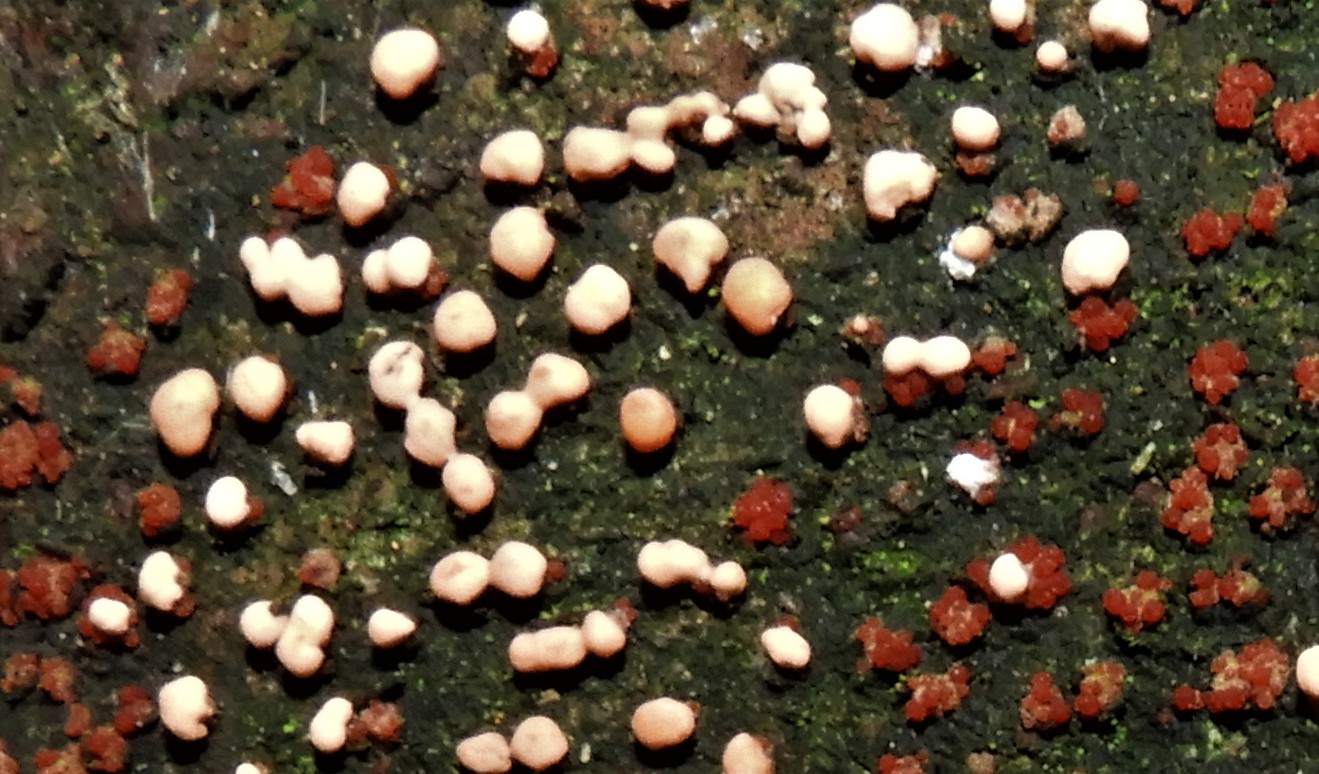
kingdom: Fungi
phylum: Ascomycota
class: Sordariomycetes
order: Hypocreales
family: Nectriaceae
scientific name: Nectriaceae
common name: cinnobersvampfamilien
